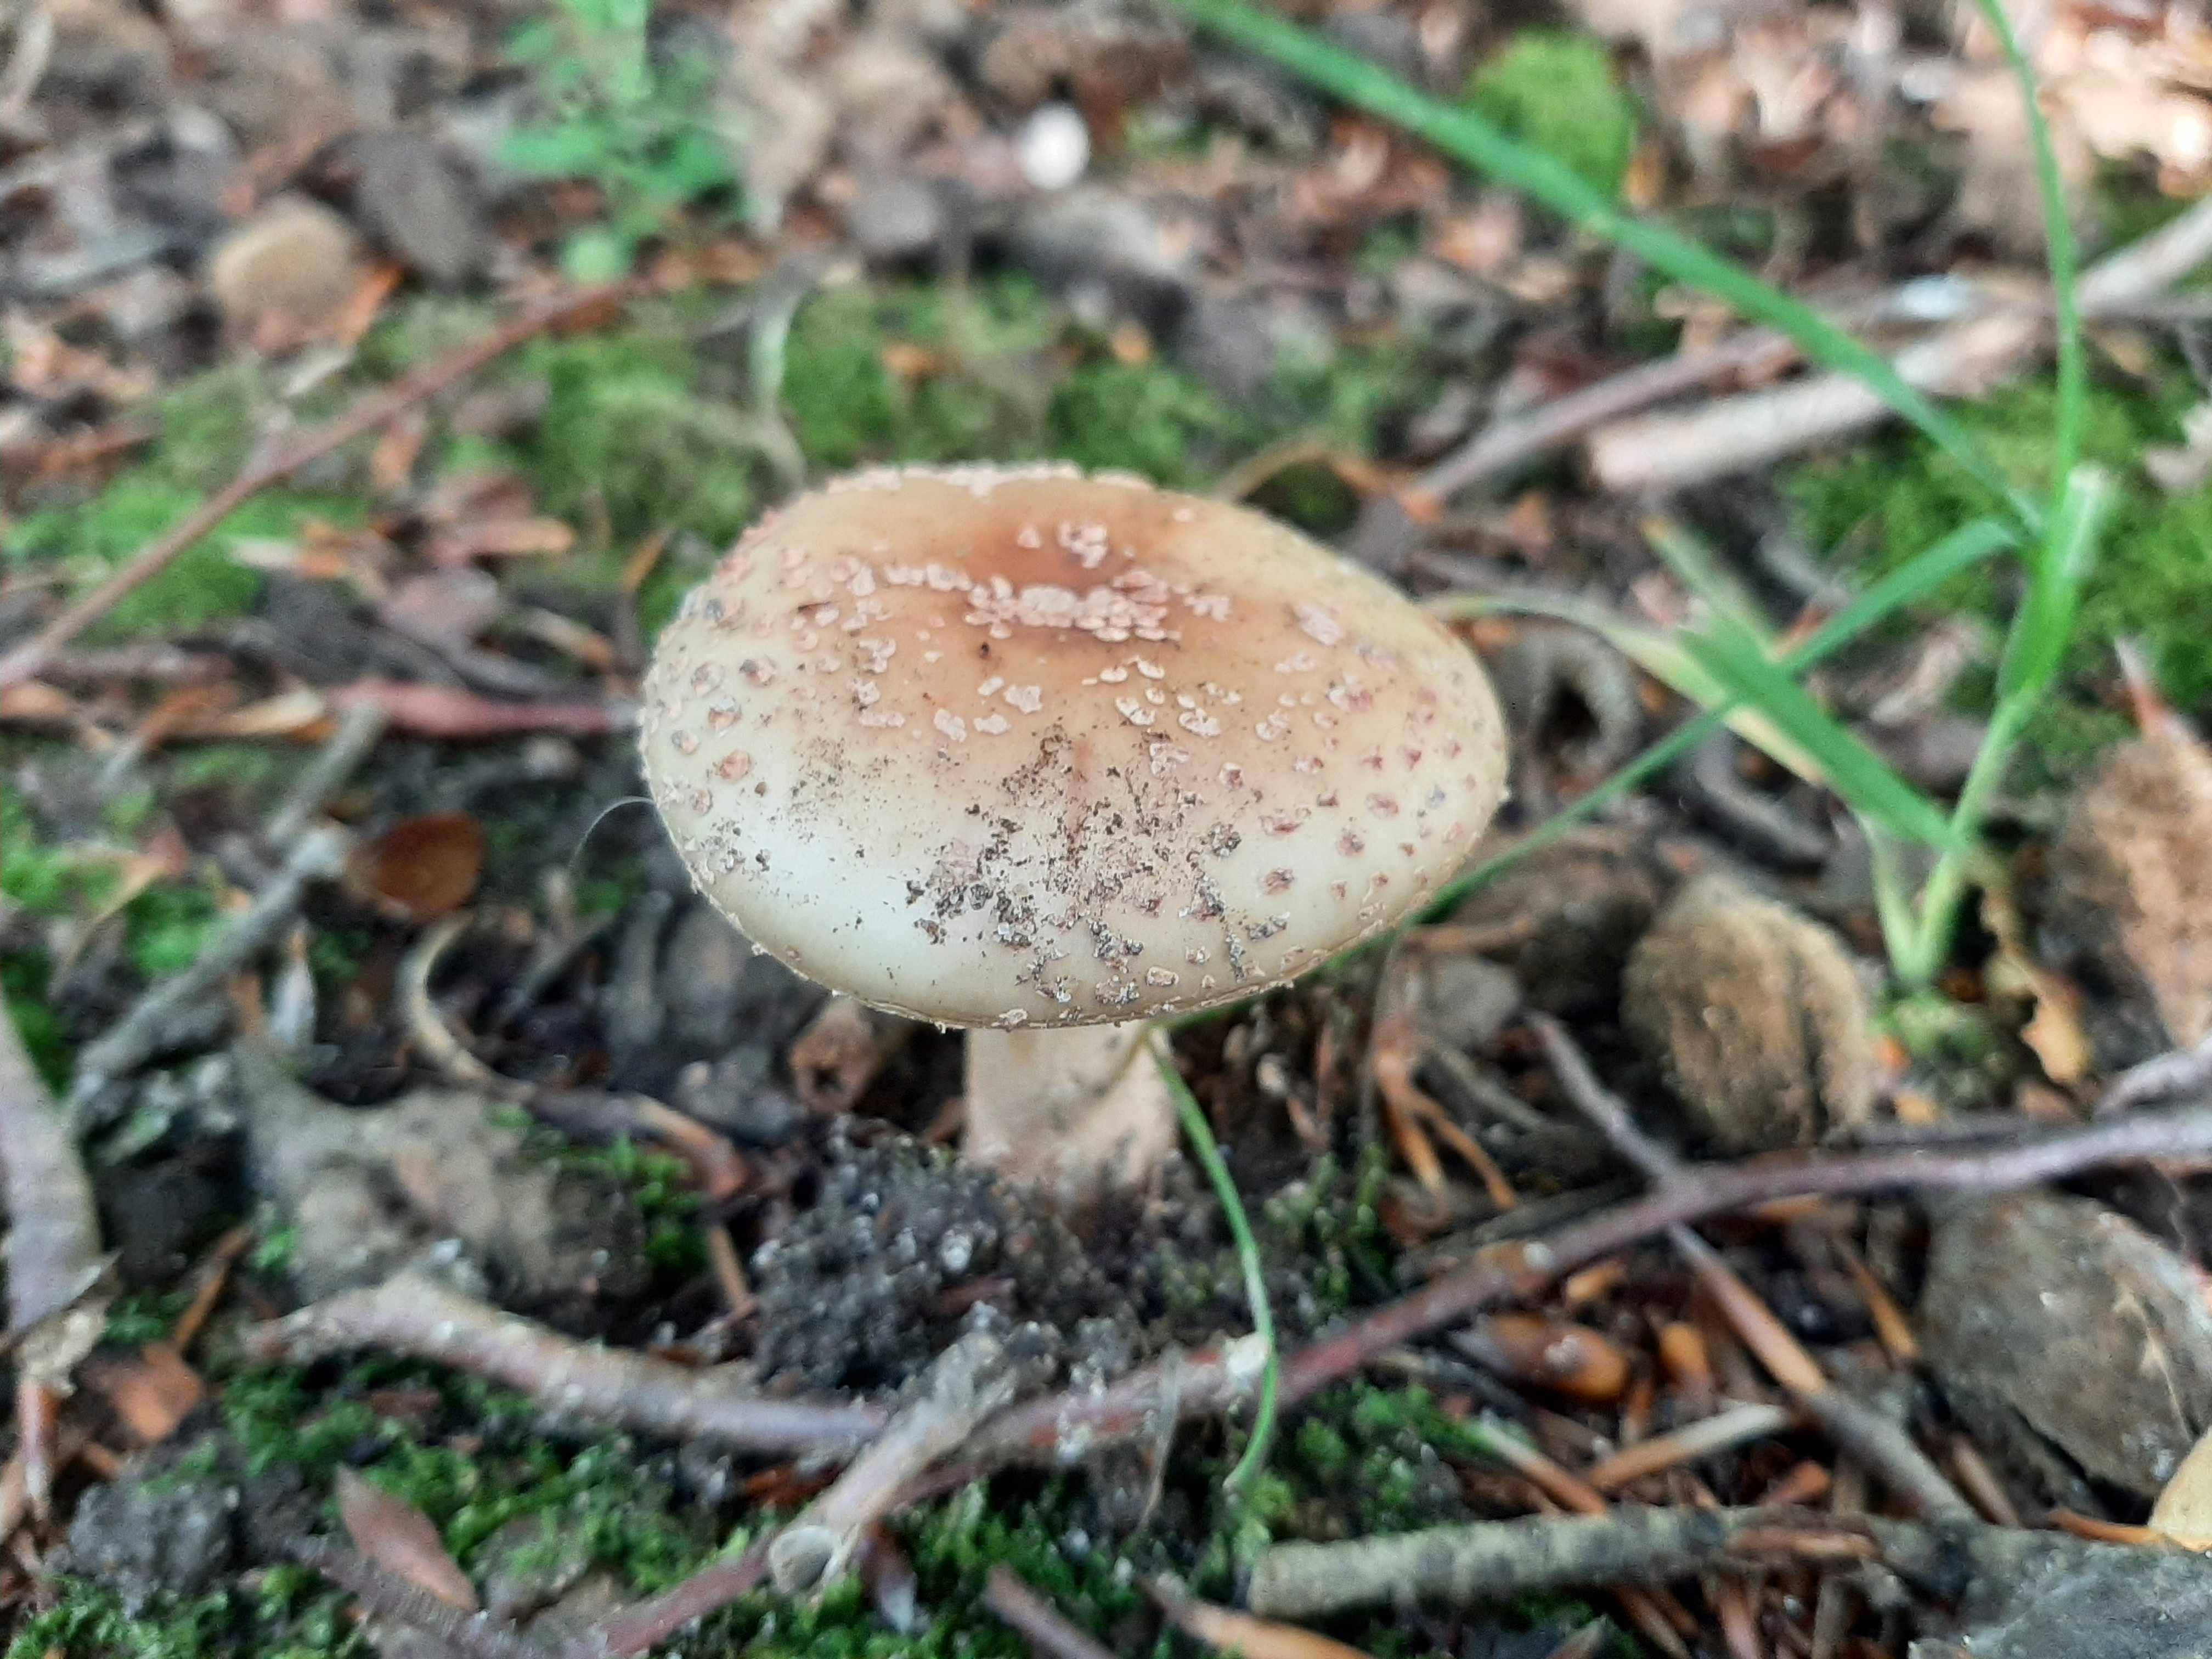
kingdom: Fungi
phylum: Basidiomycota
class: Agaricomycetes
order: Agaricales
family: Amanitaceae
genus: Amanita
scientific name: Amanita rubescens
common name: rødmende fluesvamp
